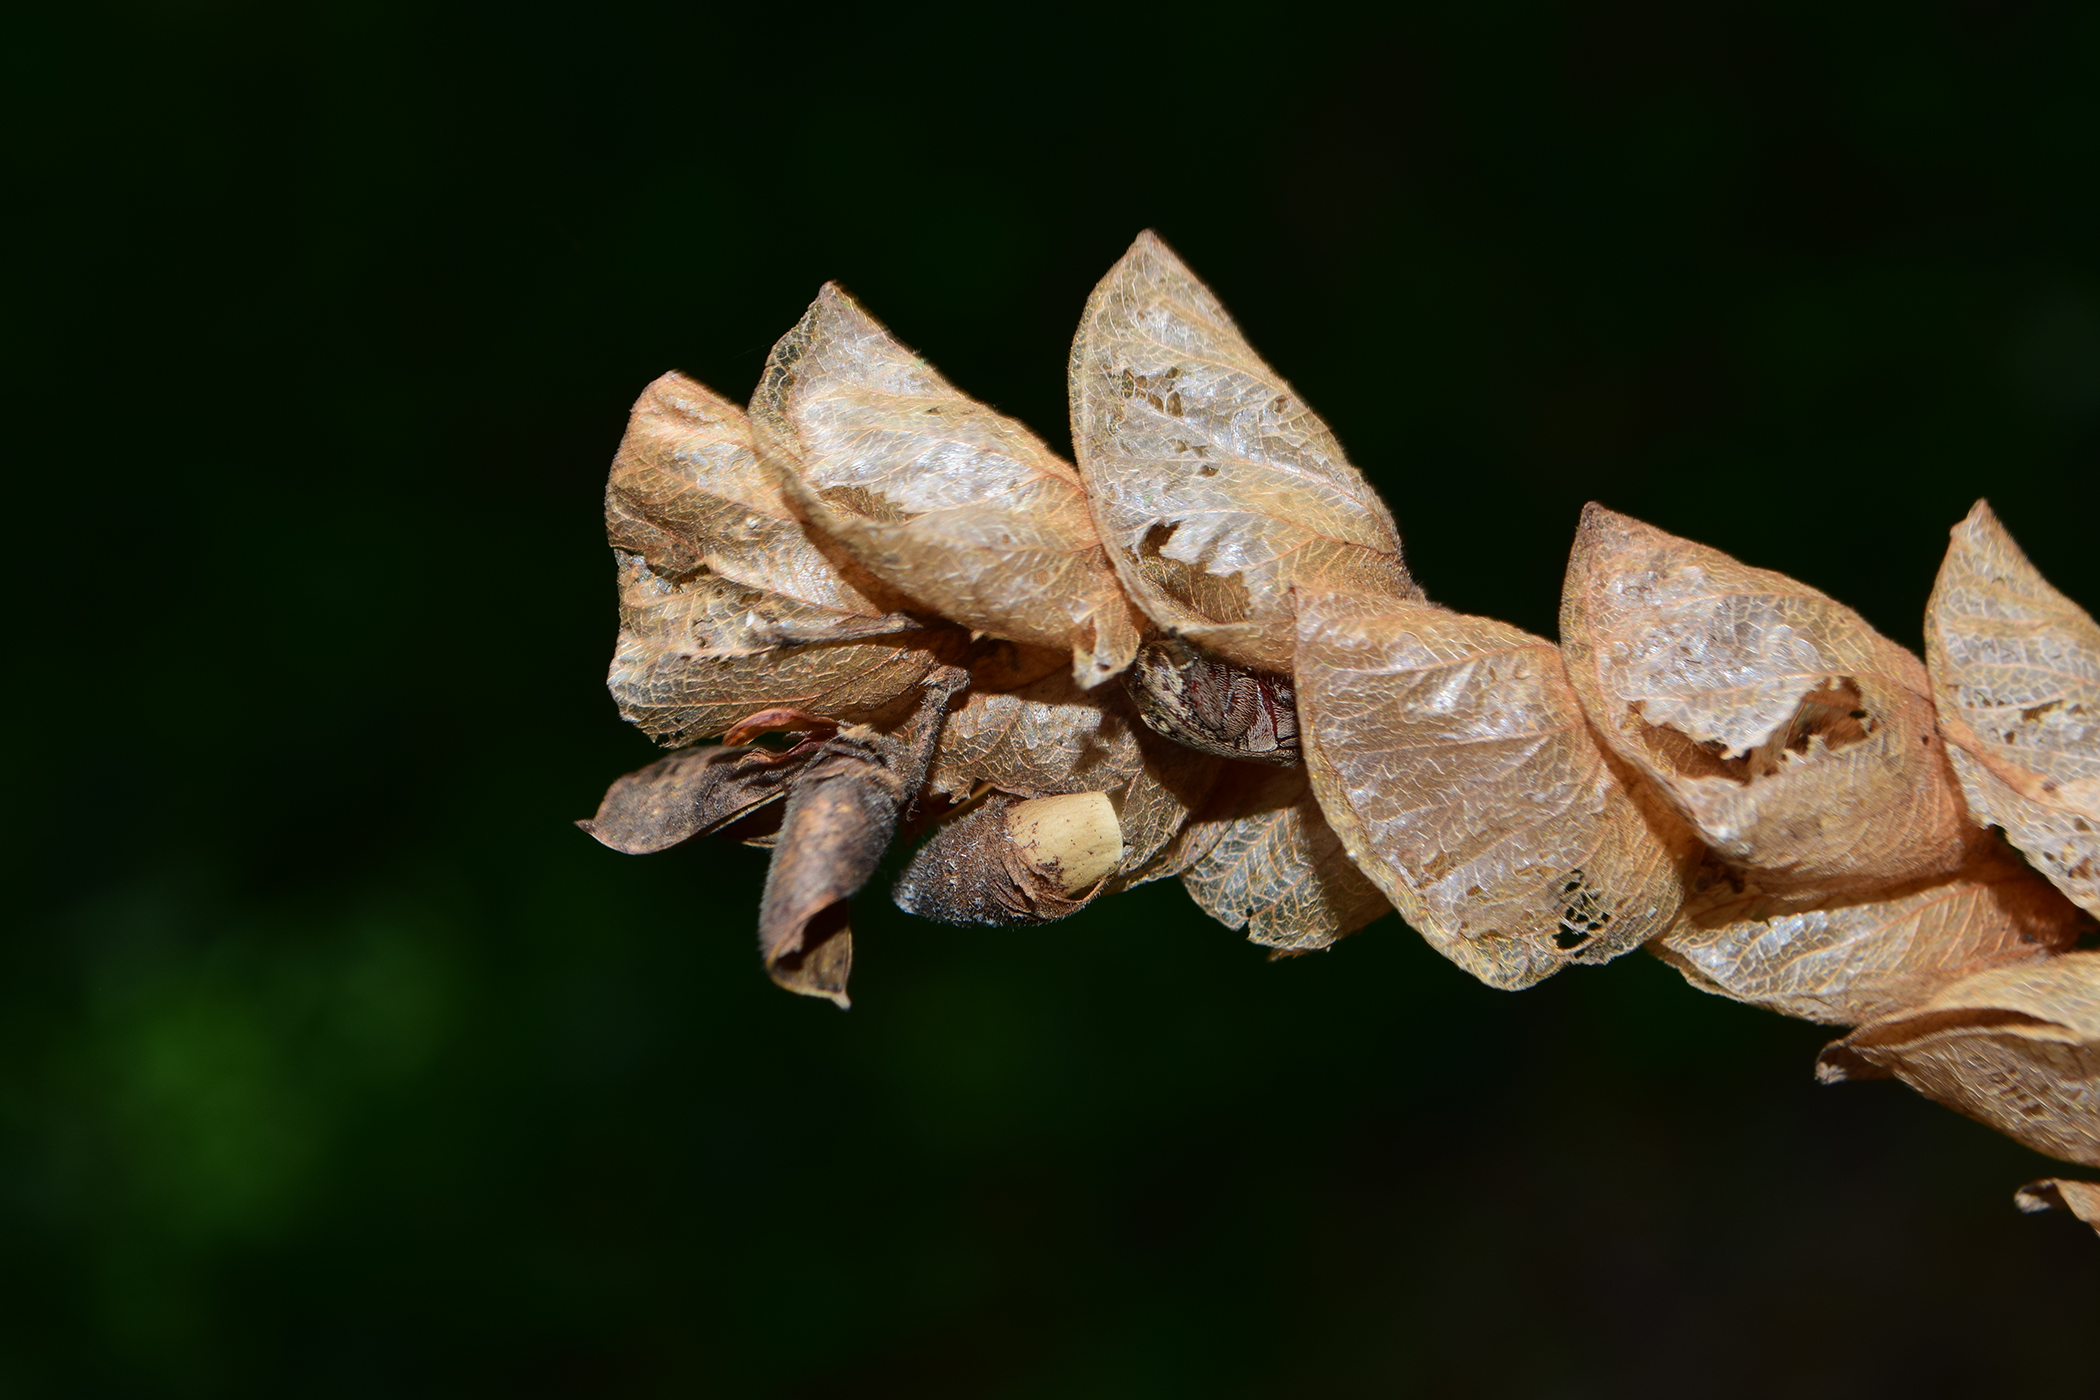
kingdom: Plantae
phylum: Tracheophyta
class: Magnoliopsida
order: Fabales
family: Fabaceae
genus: Flemingia
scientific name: Flemingia strobilifera
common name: Wild hops
